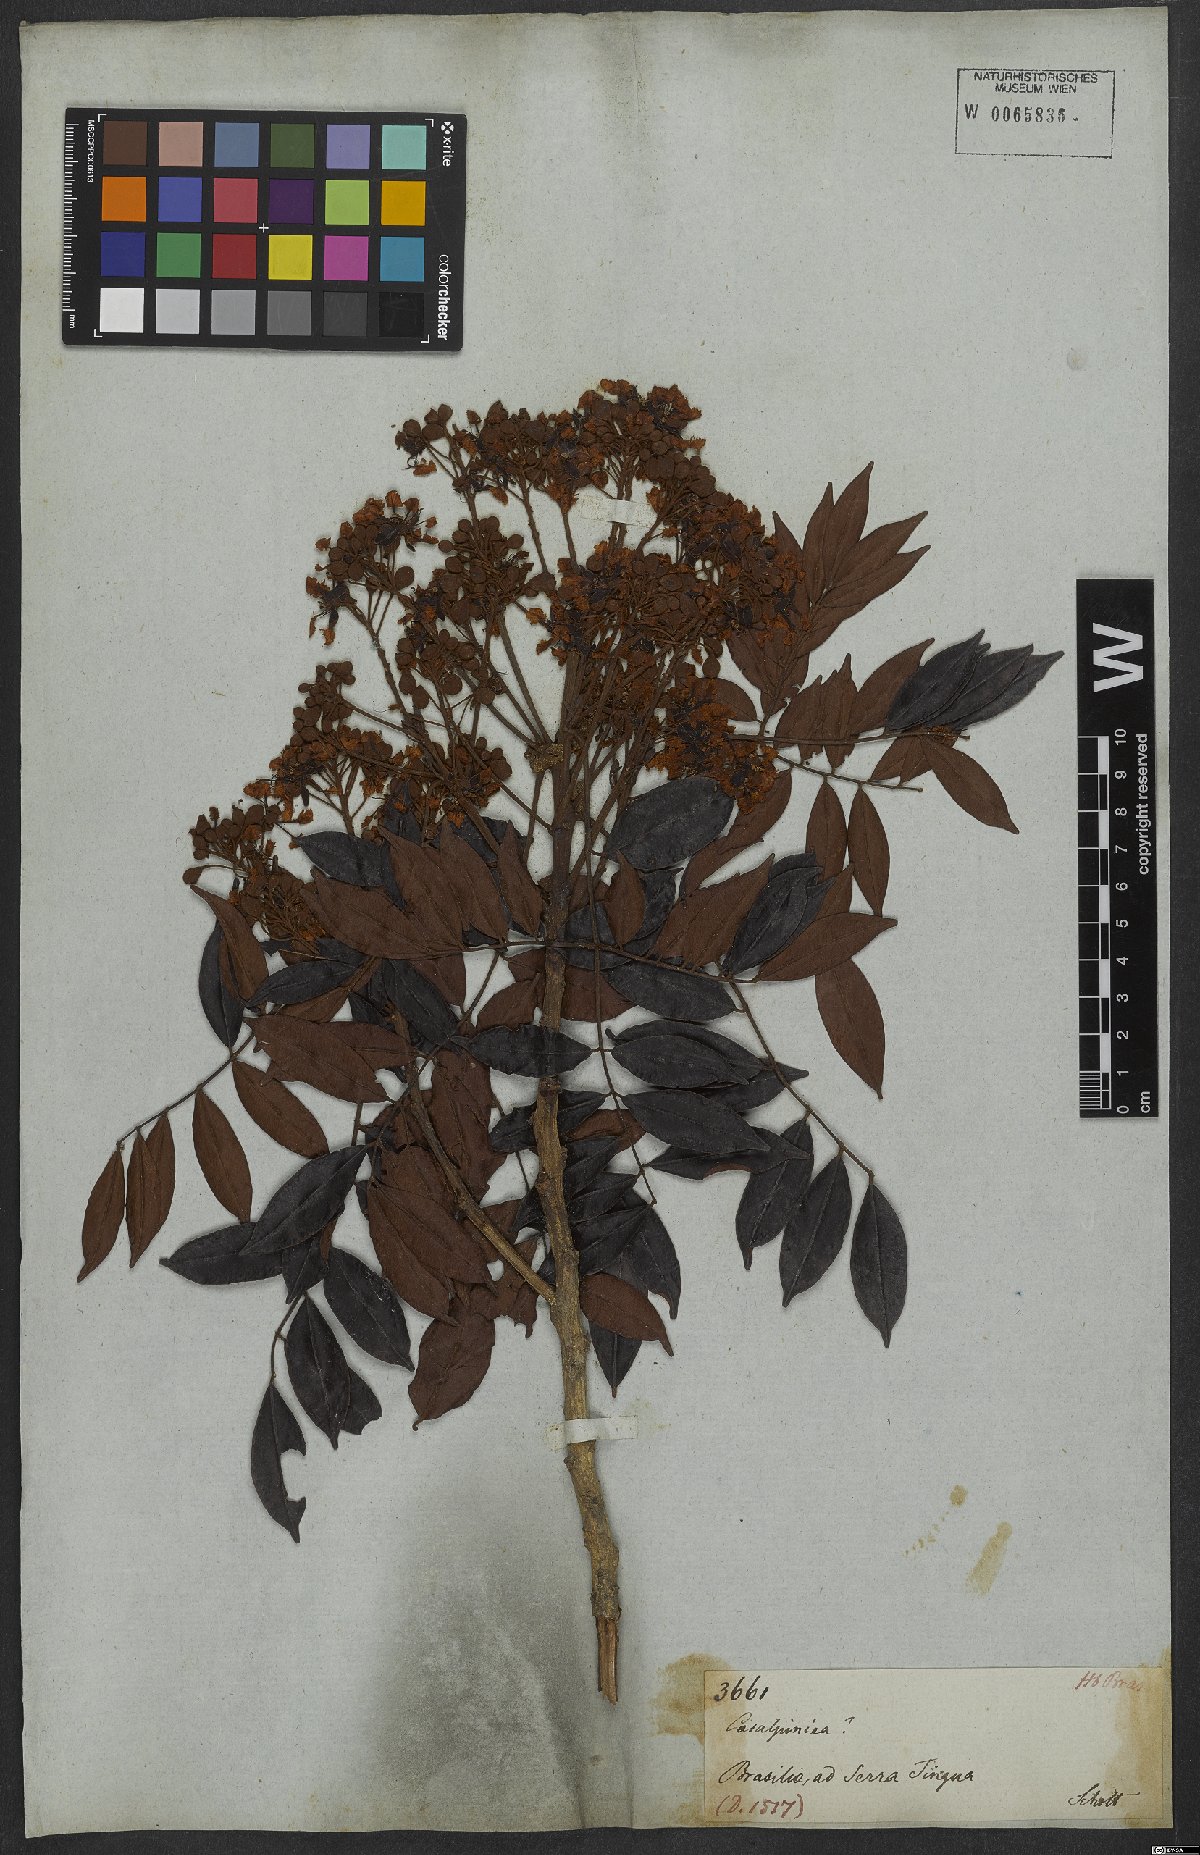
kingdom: Plantae
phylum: Tracheophyta
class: Magnoliopsida
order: Fabales
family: Fabaceae
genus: Caesalpinia
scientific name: Caesalpinia
